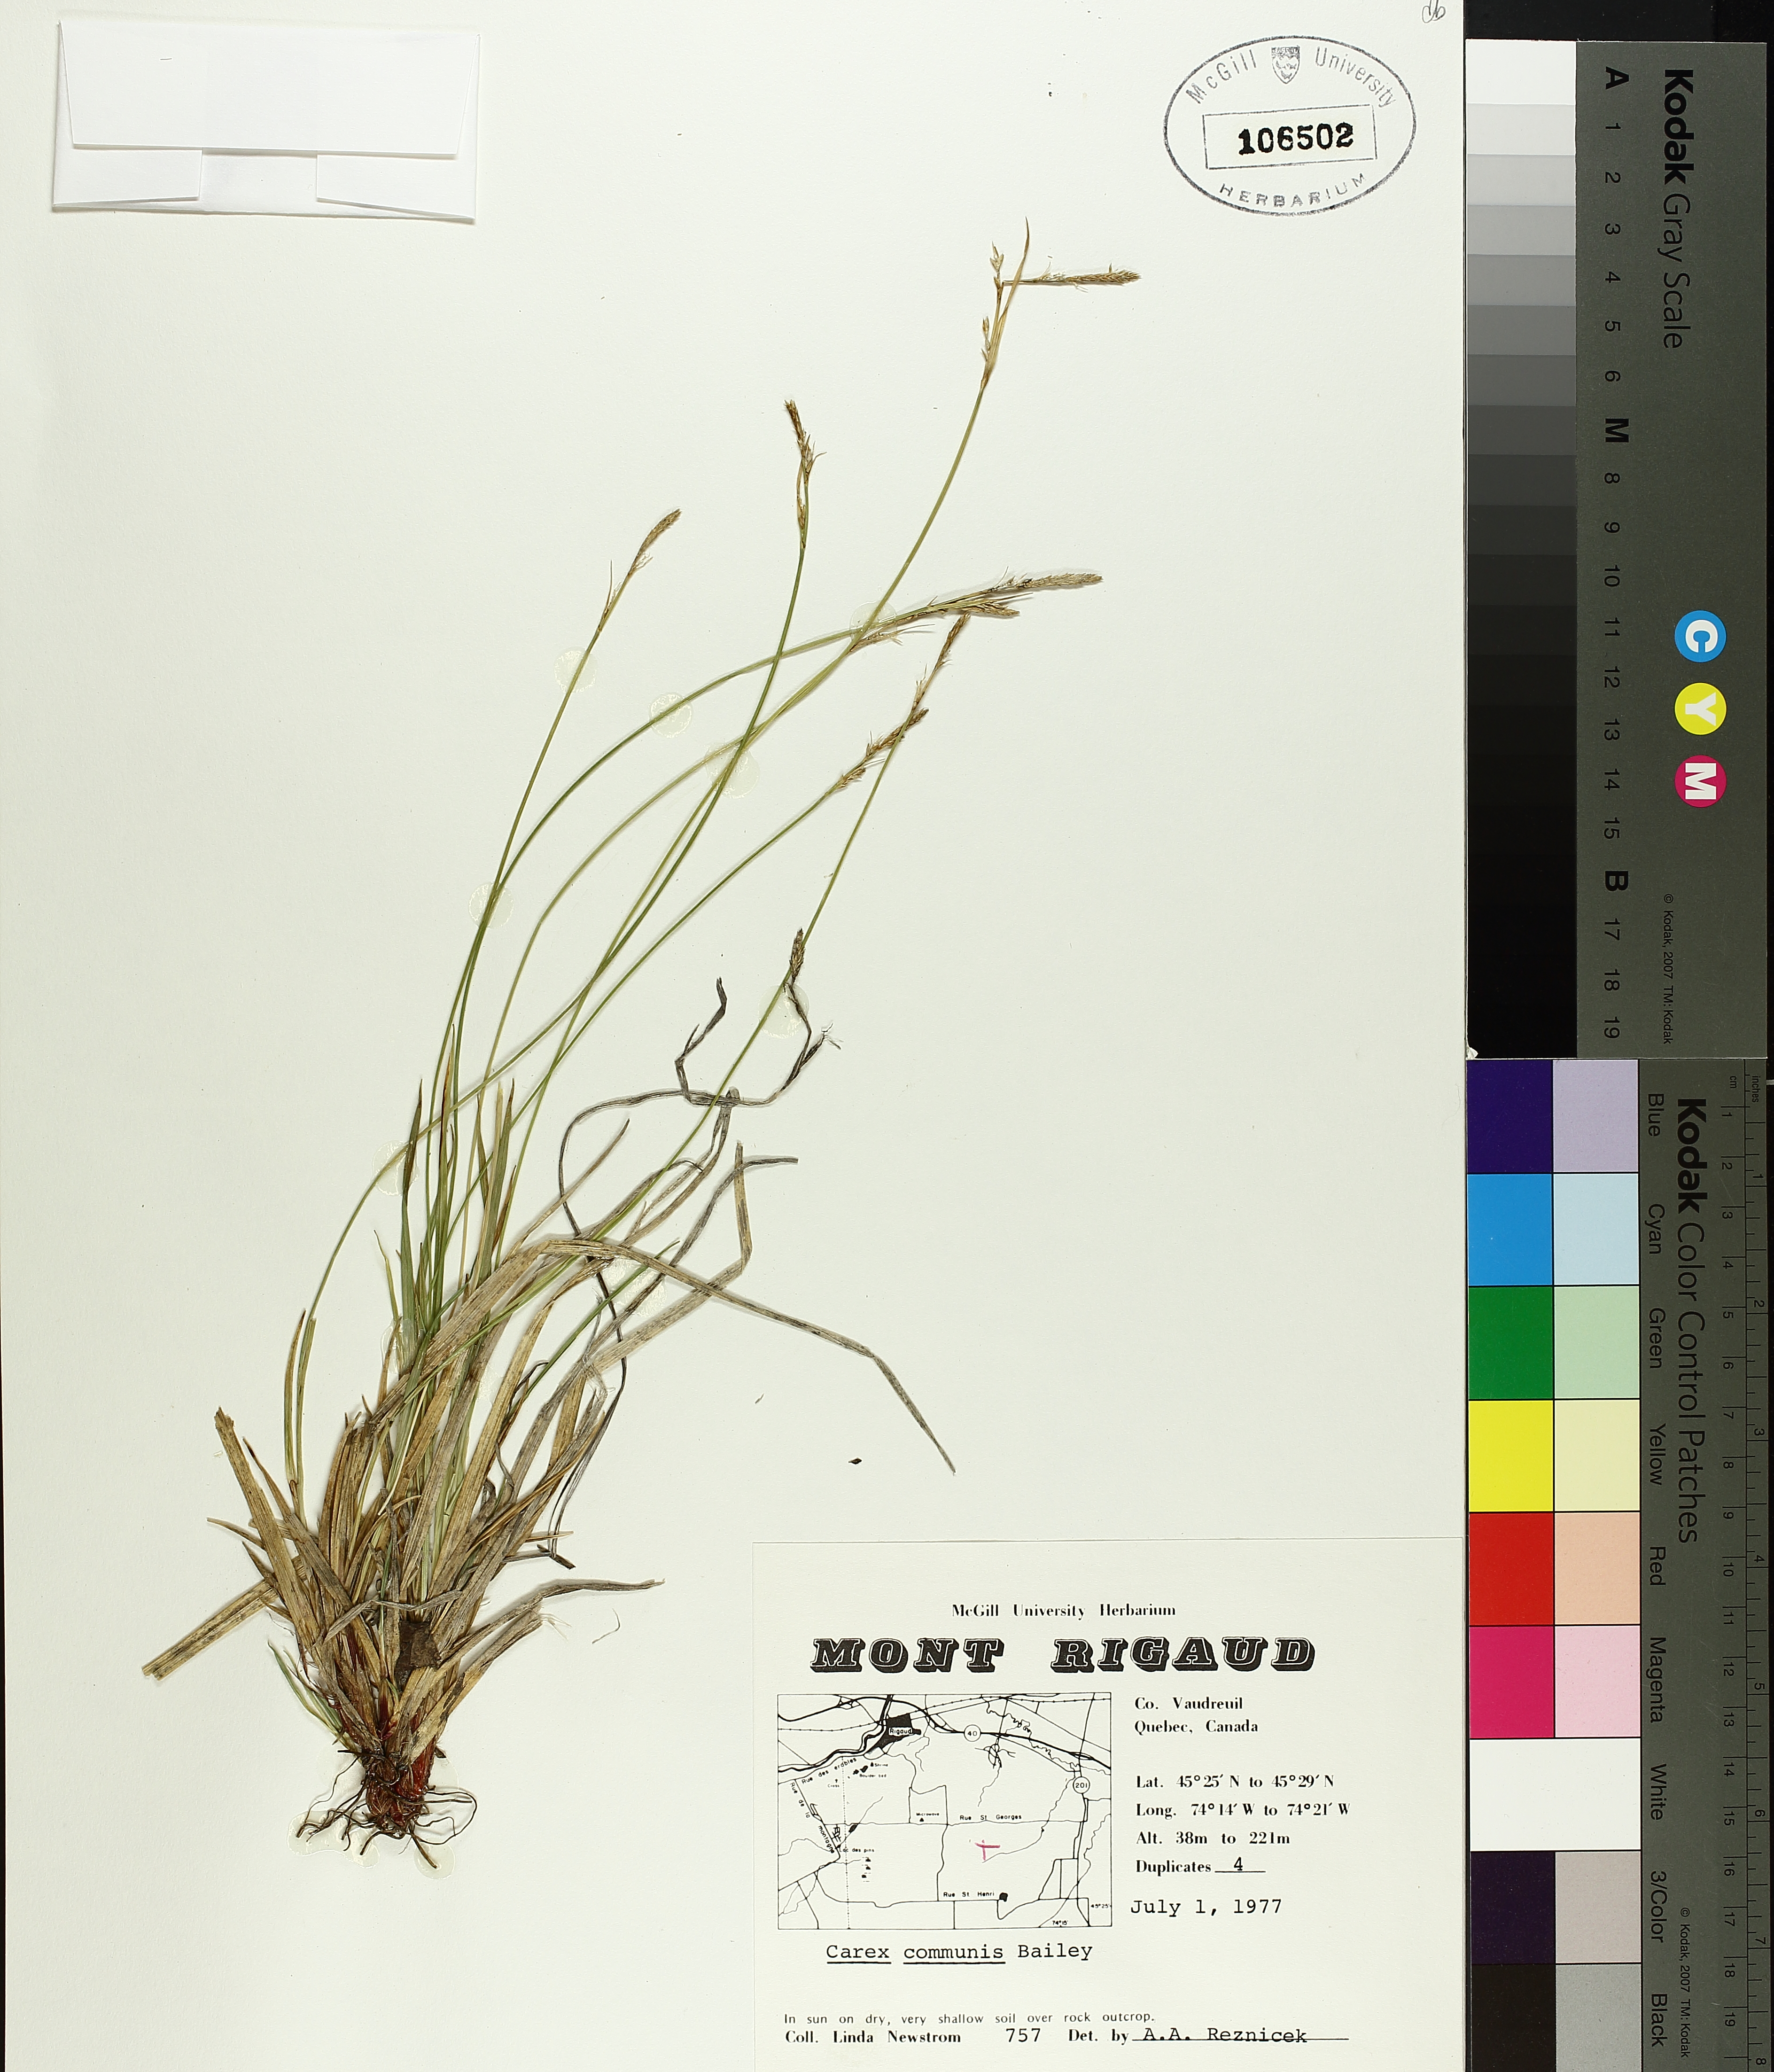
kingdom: Plantae
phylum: Tracheophyta
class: Liliopsida
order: Poales
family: Cyperaceae
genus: Carex
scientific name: Carex communis
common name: Colonial oak sedge
